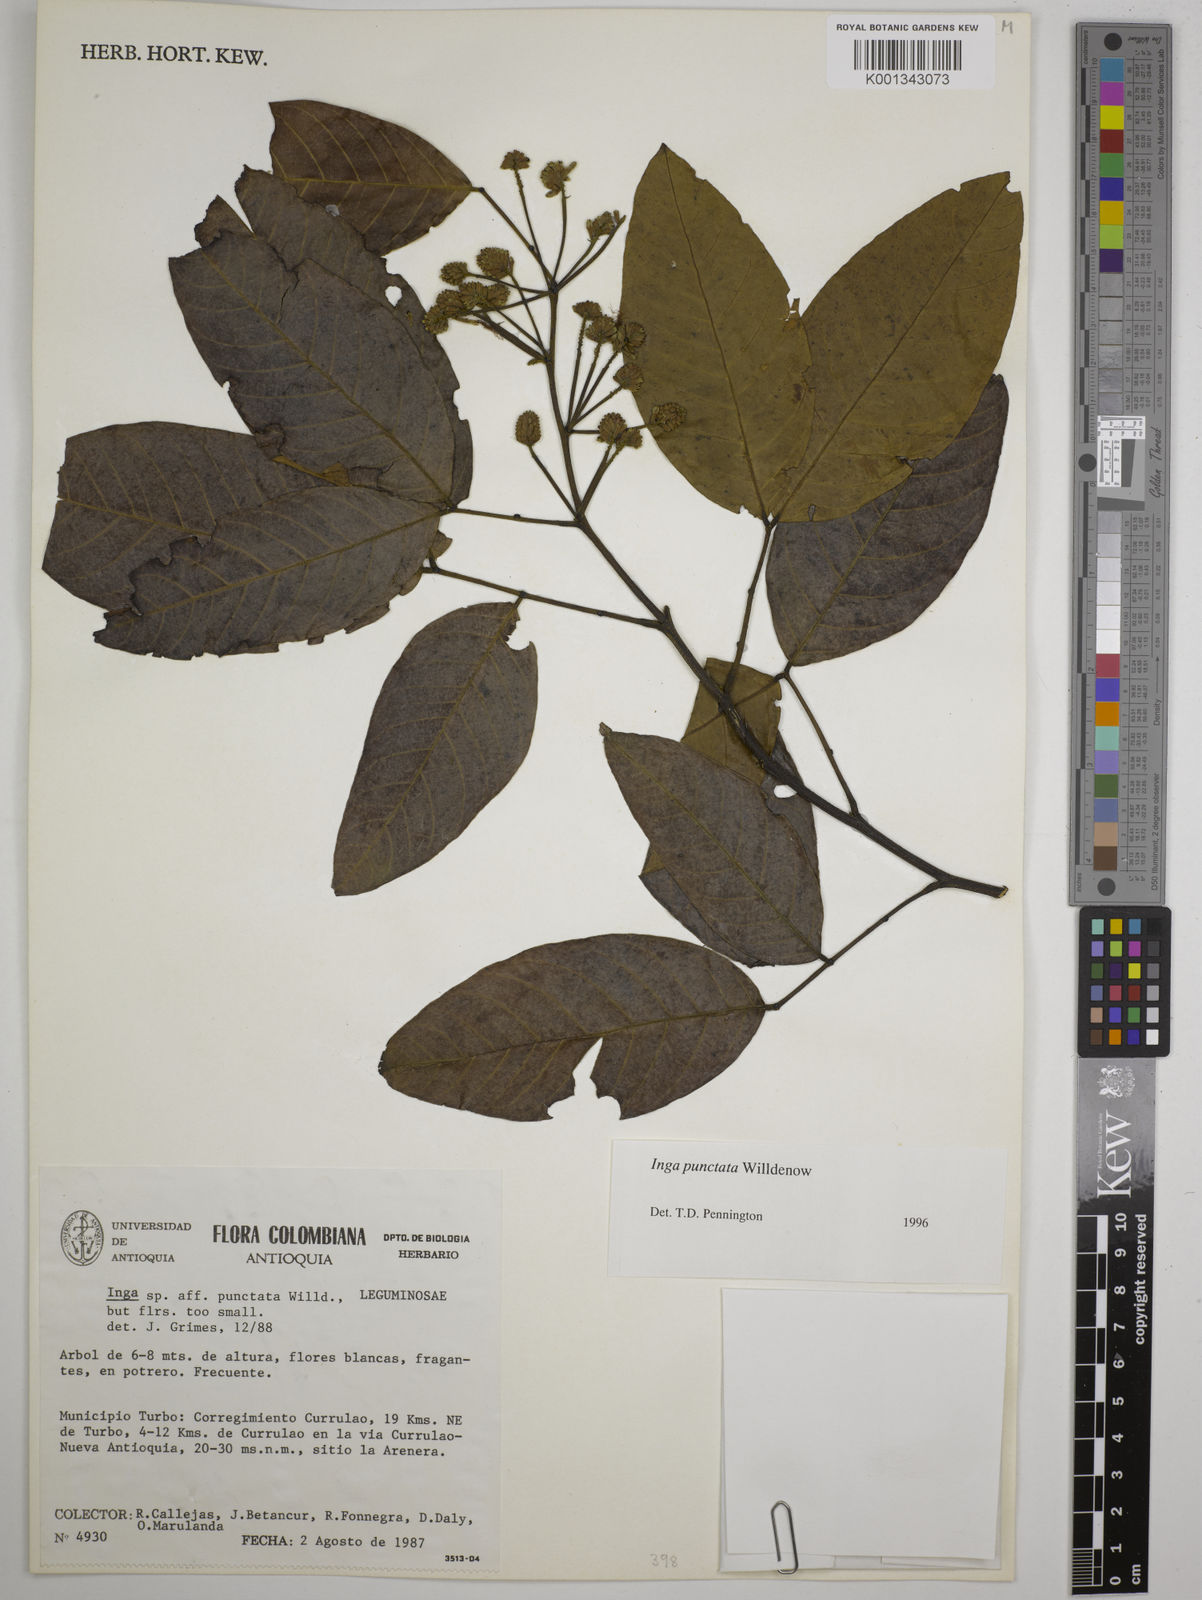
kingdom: Plantae
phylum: Tracheophyta
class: Magnoliopsida
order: Fabales
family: Fabaceae
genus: Inga
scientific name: Inga punctata
